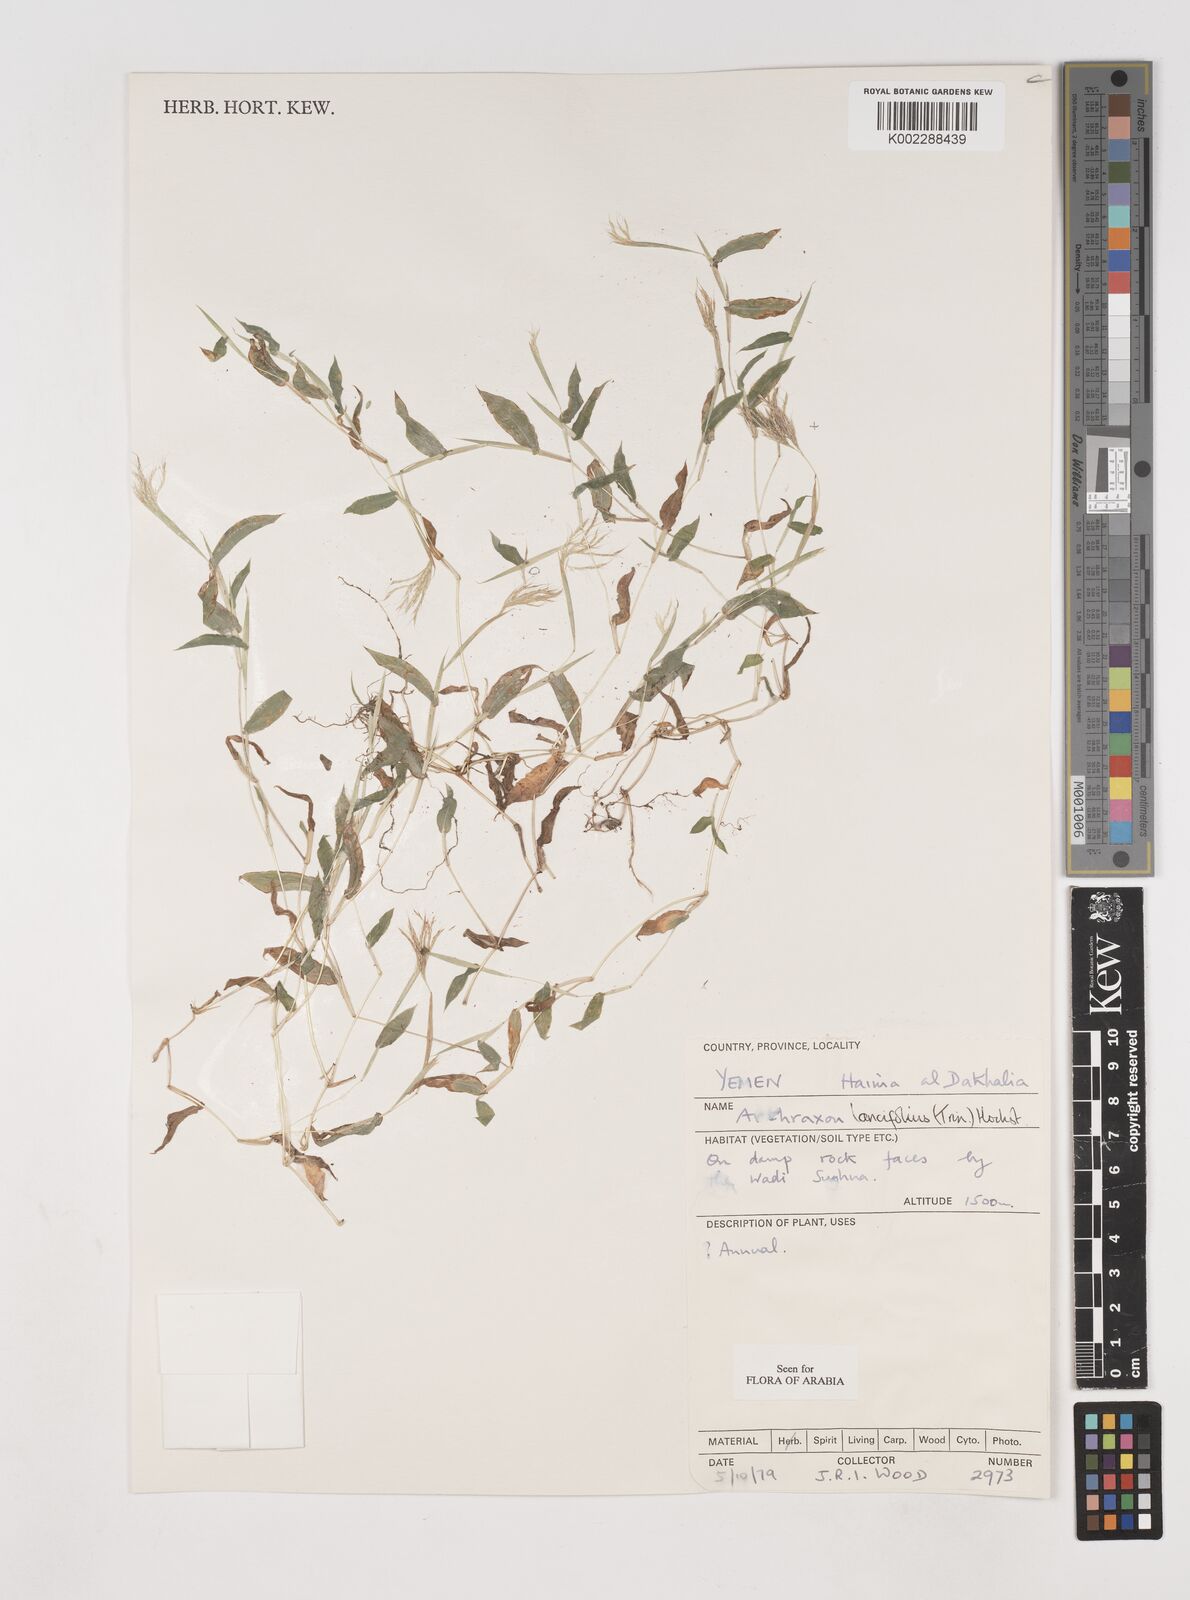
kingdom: Plantae
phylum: Tracheophyta
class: Liliopsida
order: Poales
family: Poaceae
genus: Arthraxon
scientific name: Arthraxon lancifolius
